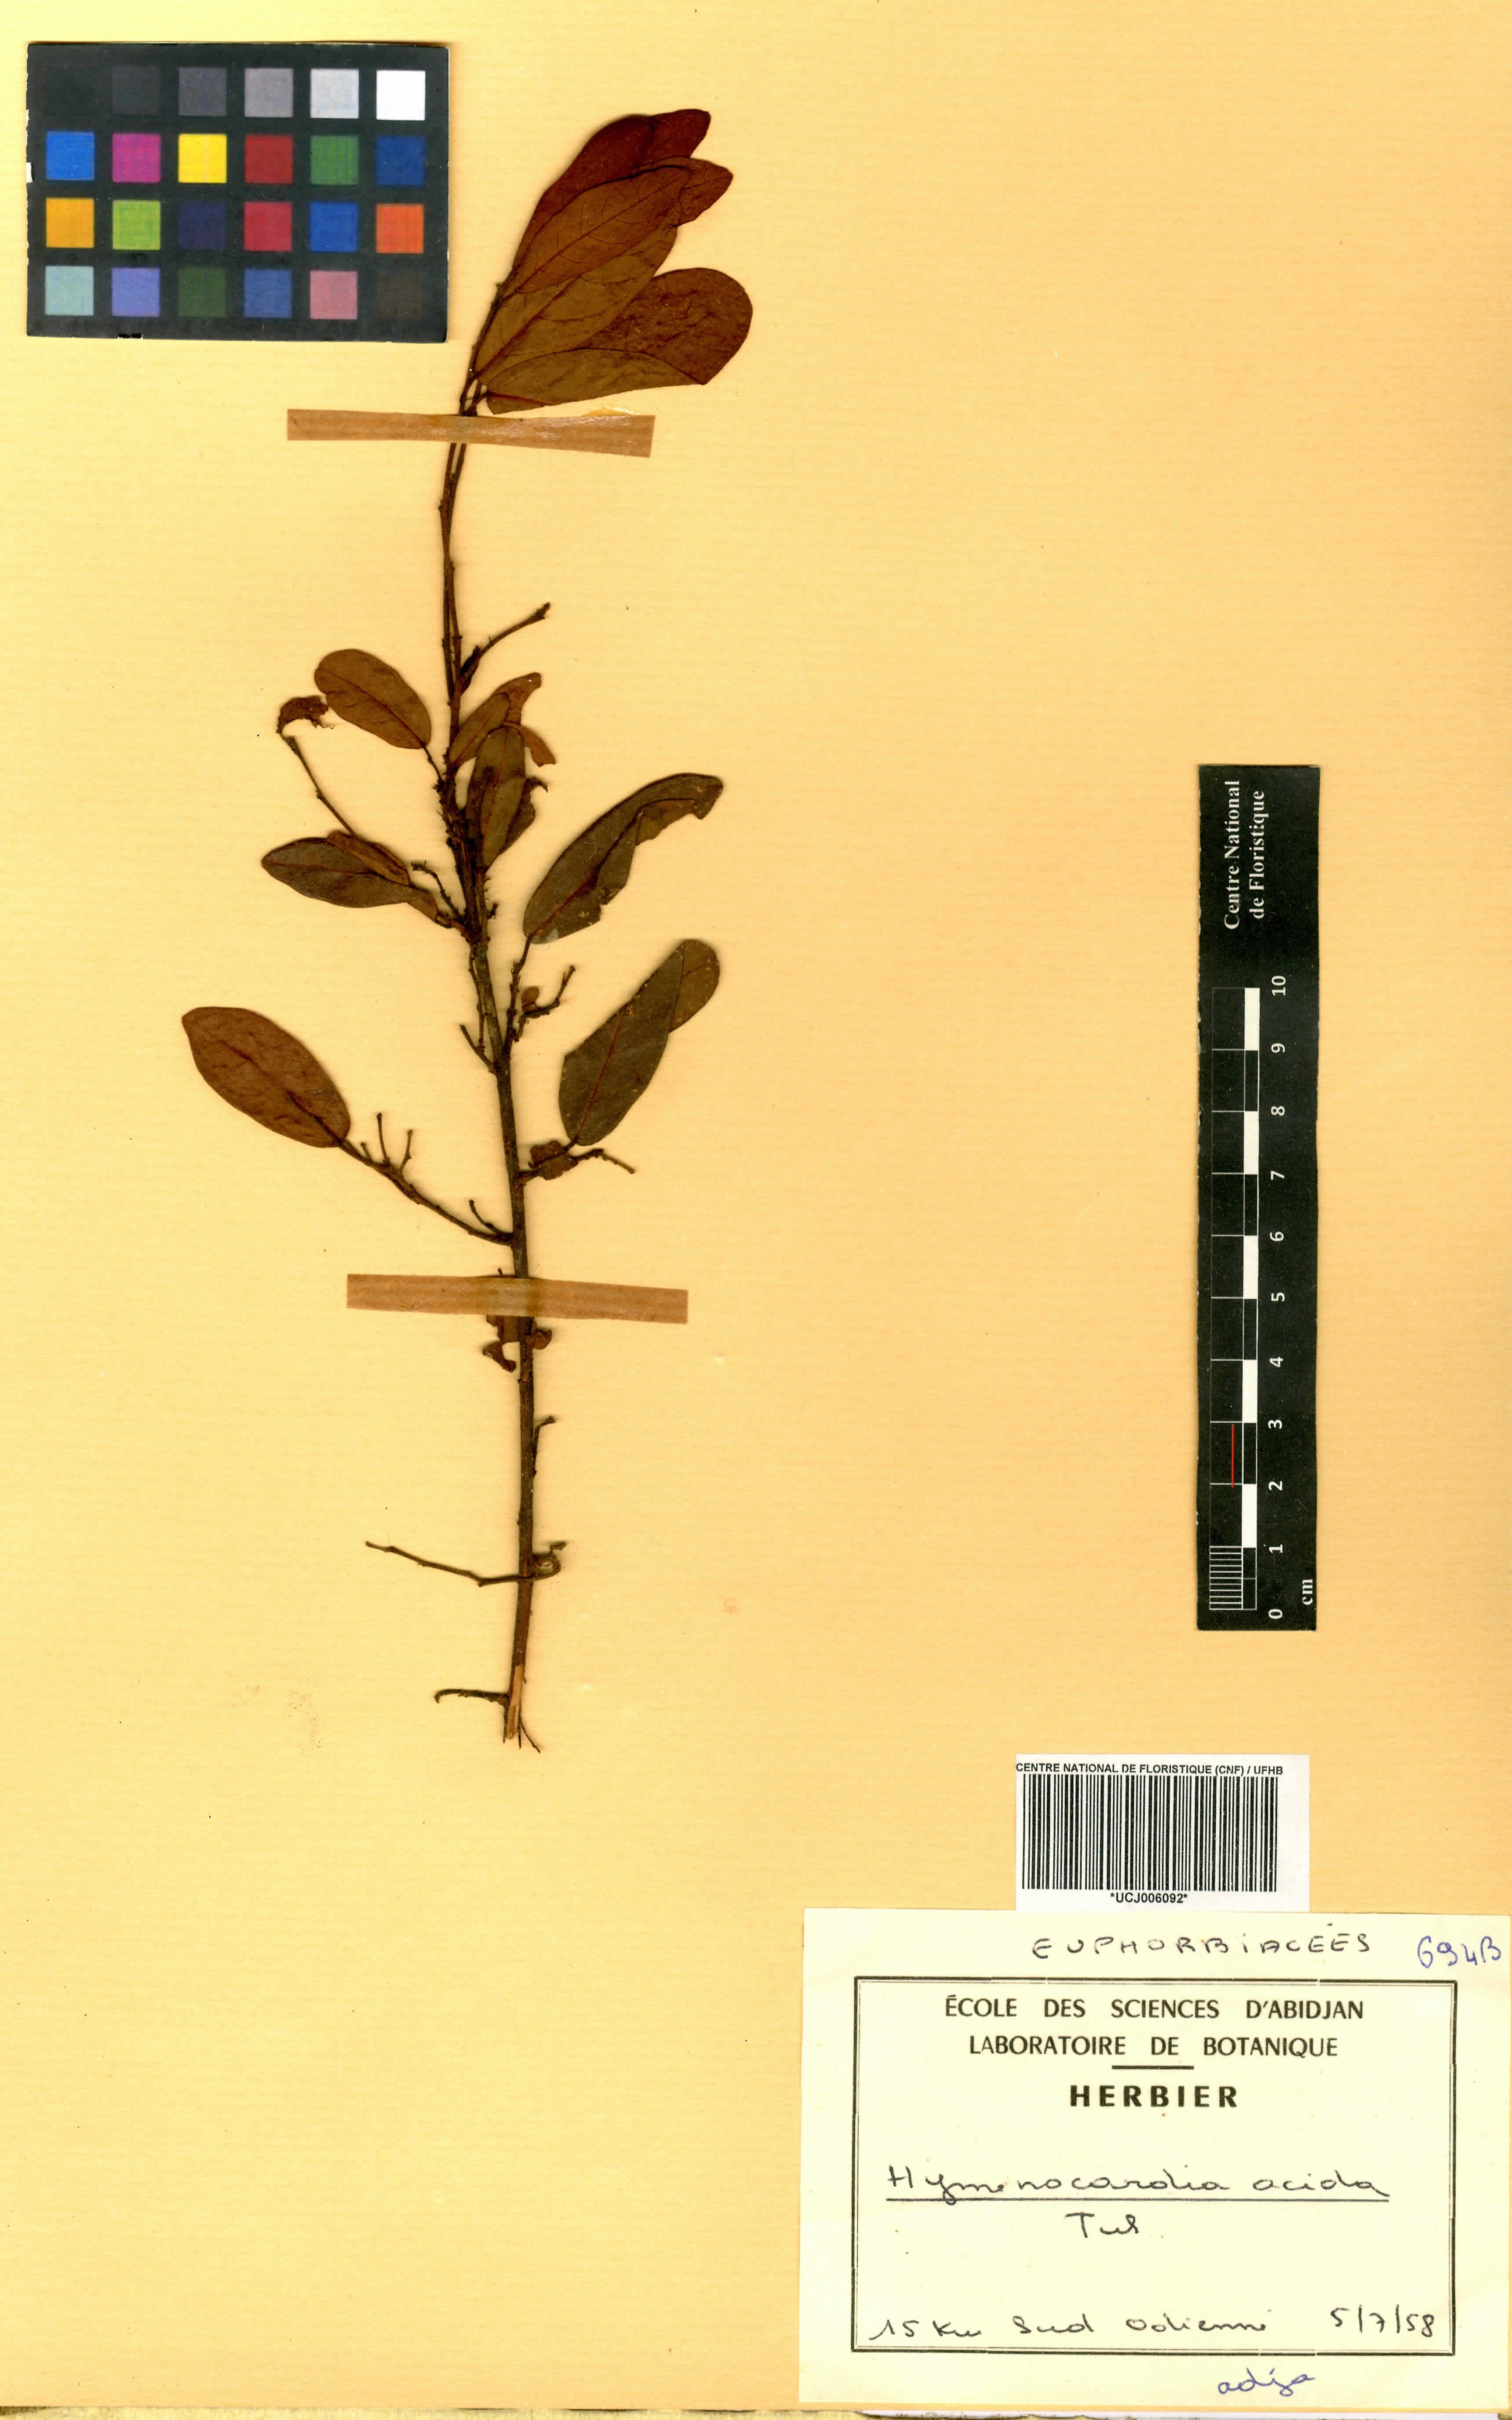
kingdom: Plantae
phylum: Tracheophyta
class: Magnoliopsida
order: Malpighiales
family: Phyllanthaceae
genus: Hymenocardia
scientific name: Hymenocardia acida
